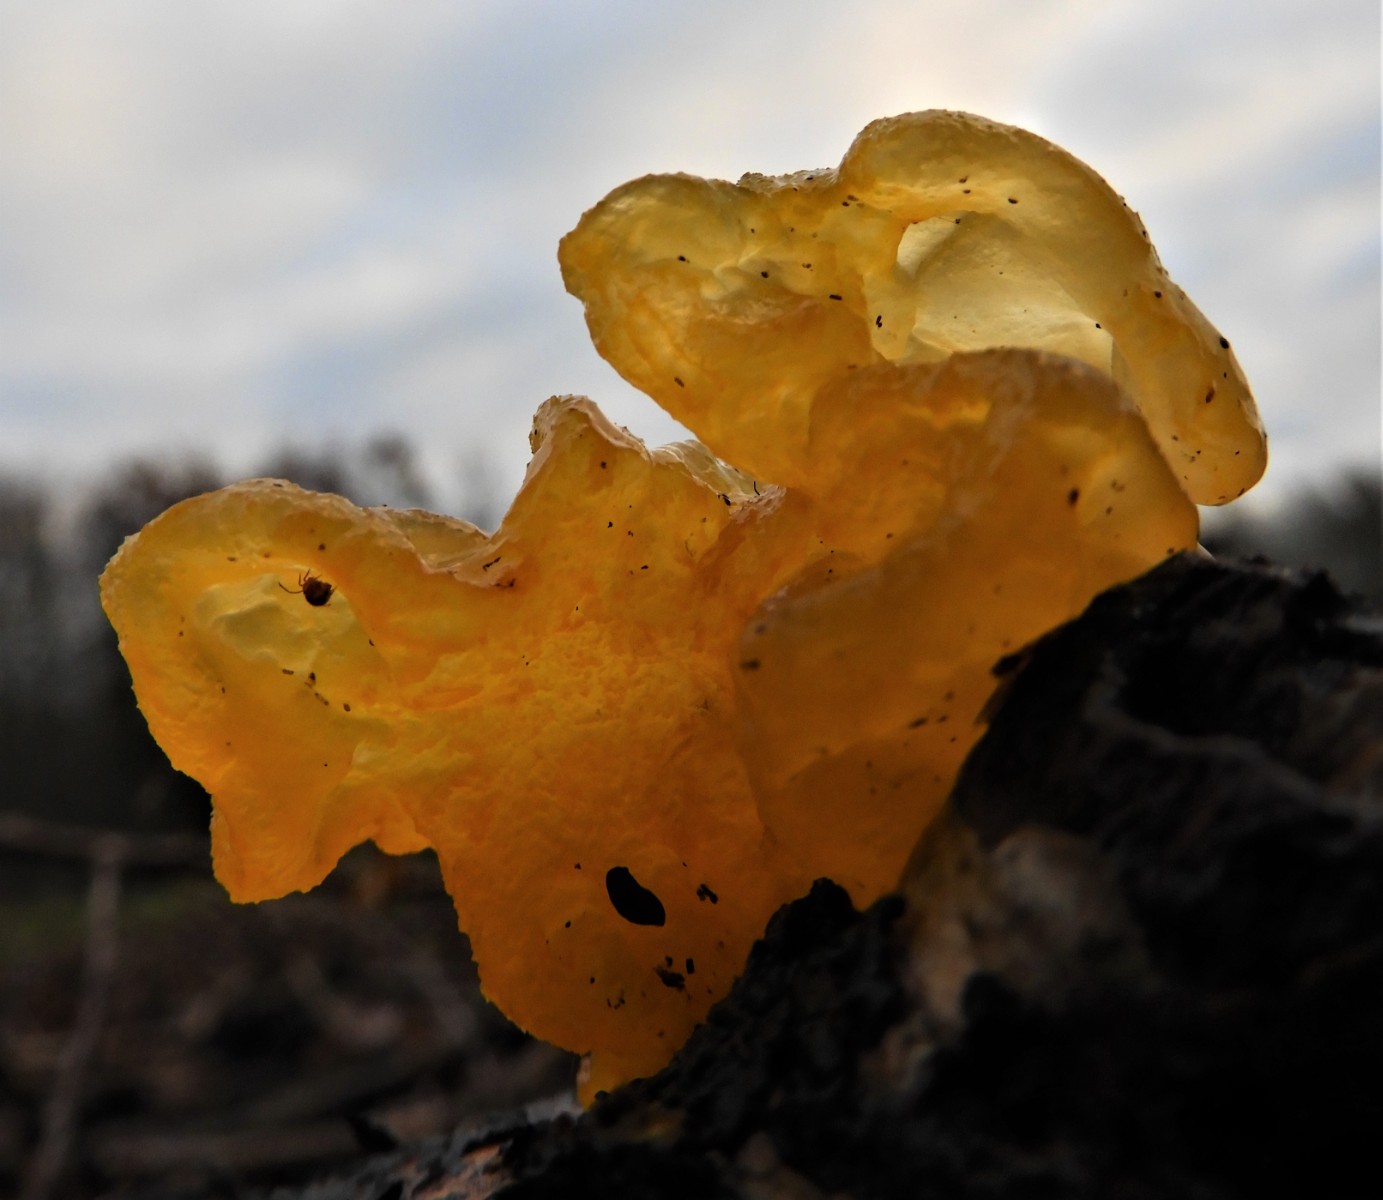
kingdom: Fungi
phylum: Basidiomycota
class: Tremellomycetes
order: Tremellales
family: Tremellaceae
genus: Tremella
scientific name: Tremella mesenterica
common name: gul bævresvamp
